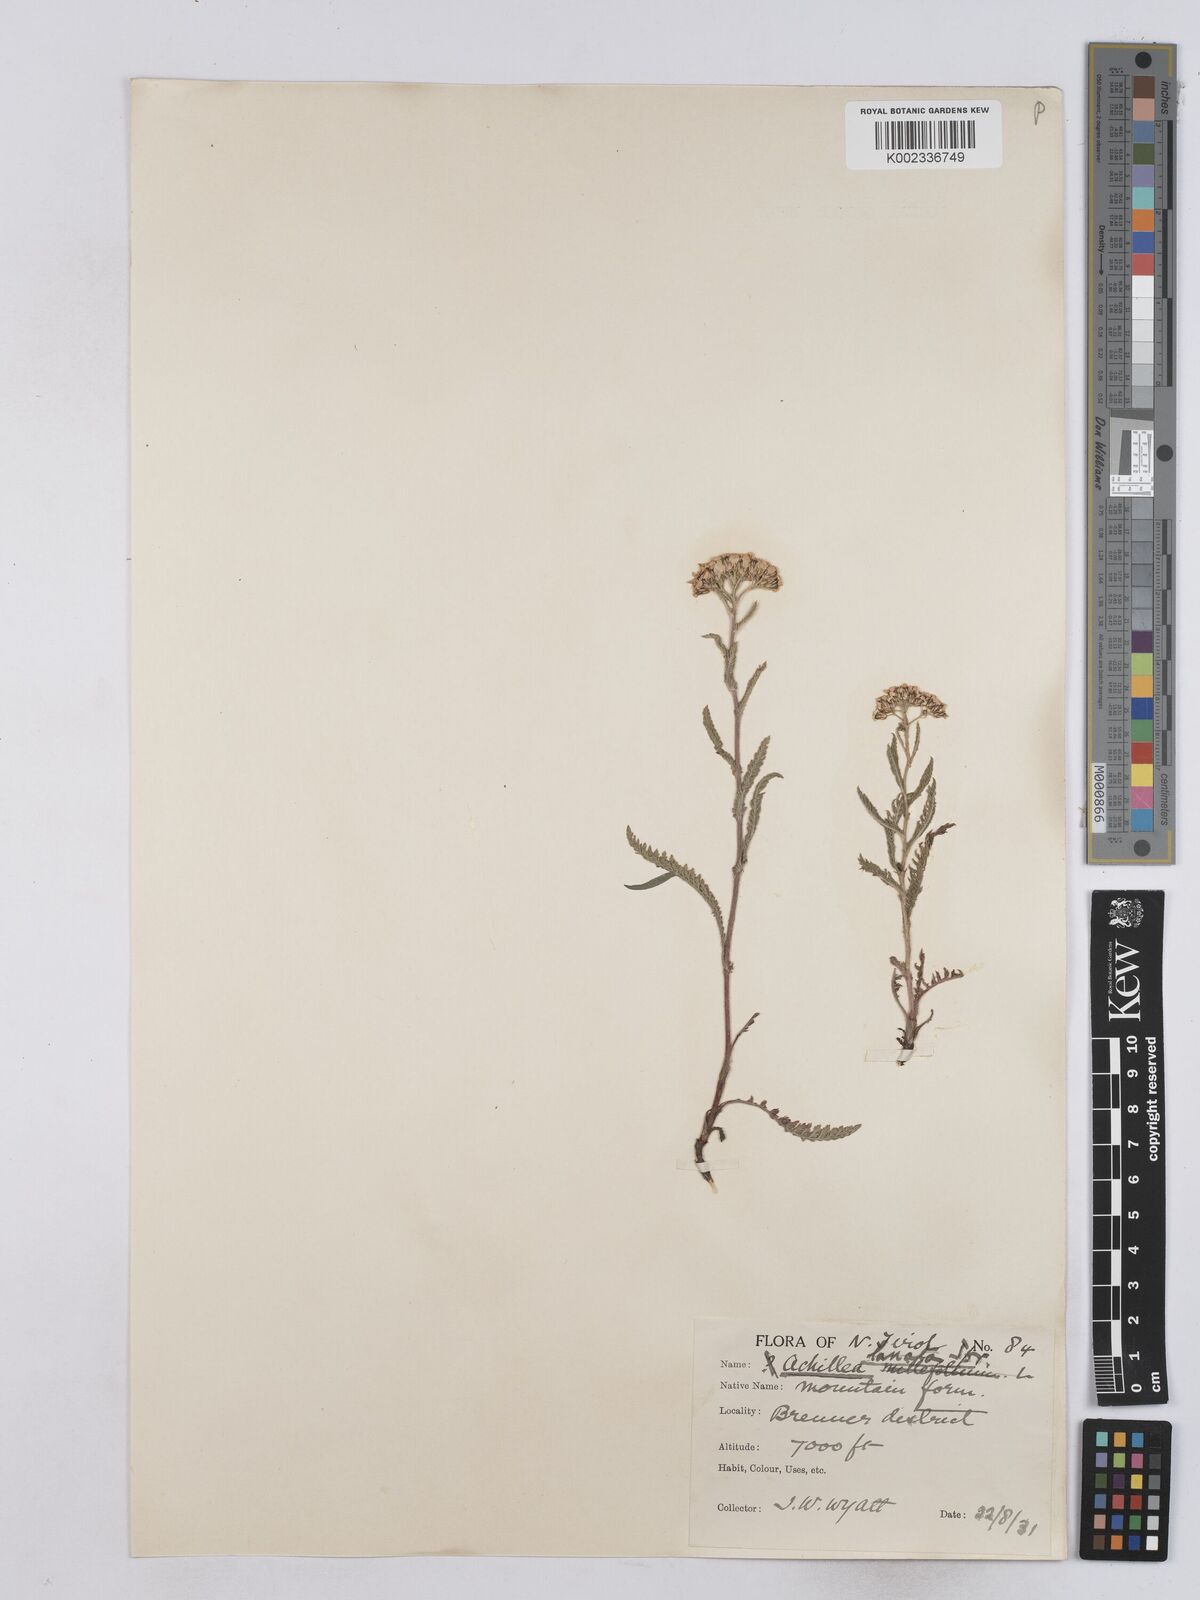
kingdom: Plantae
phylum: Tracheophyta
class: Magnoliopsida
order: Asterales
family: Asteraceae
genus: Achillea
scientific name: Achillea setacea
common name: Bristly yarrow
